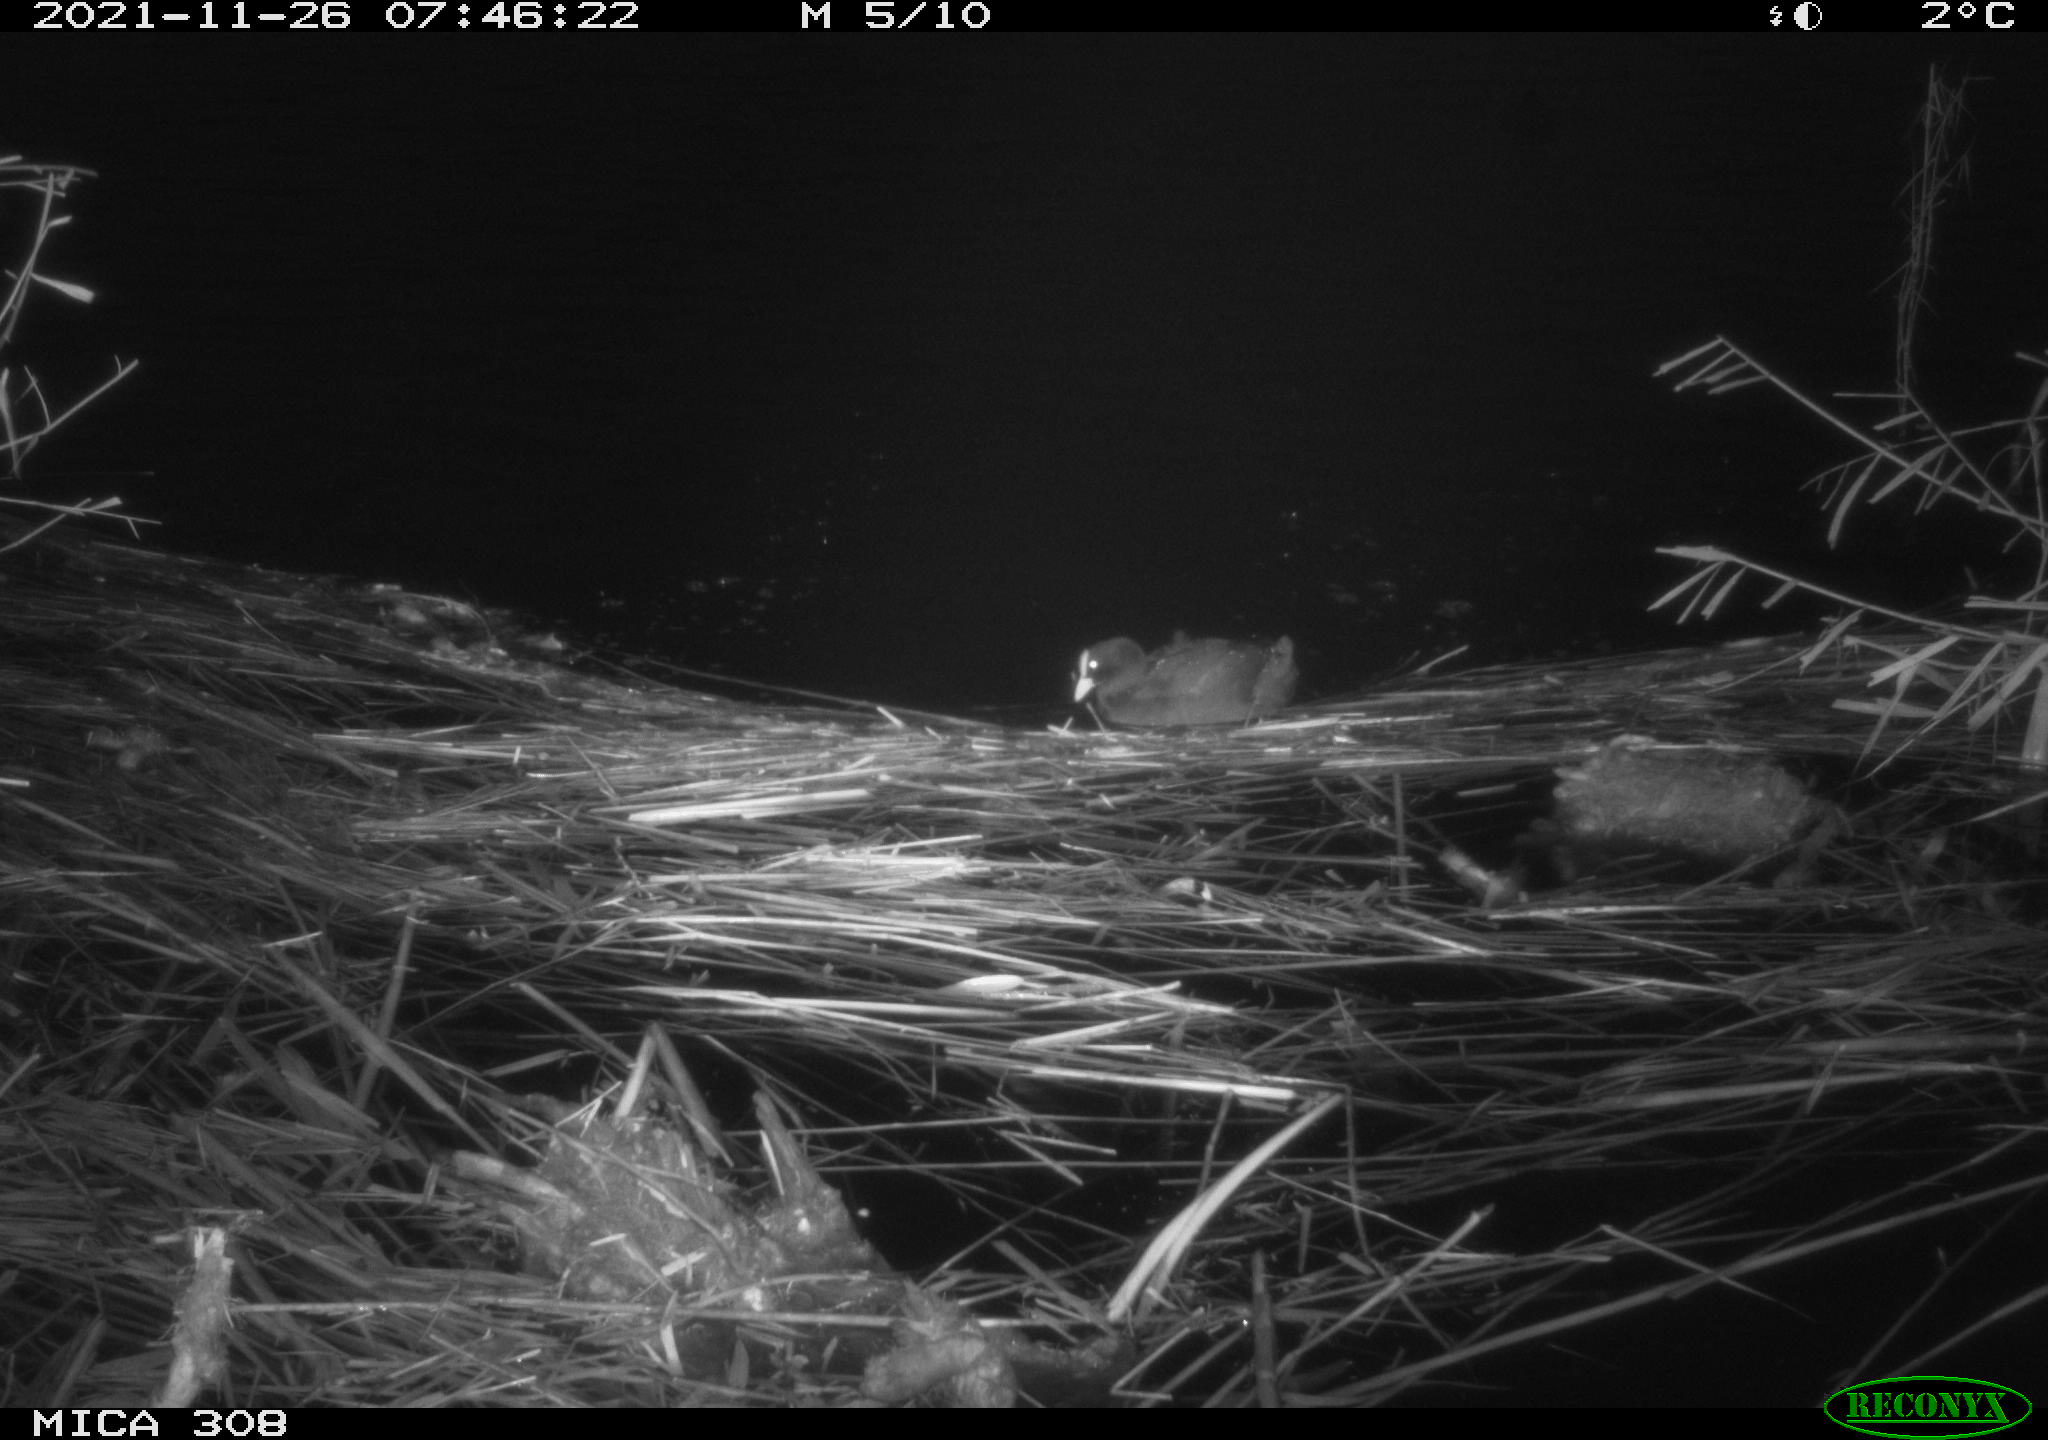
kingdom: Animalia
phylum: Chordata
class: Aves
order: Gruiformes
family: Rallidae
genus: Fulica
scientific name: Fulica atra
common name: Eurasian coot
